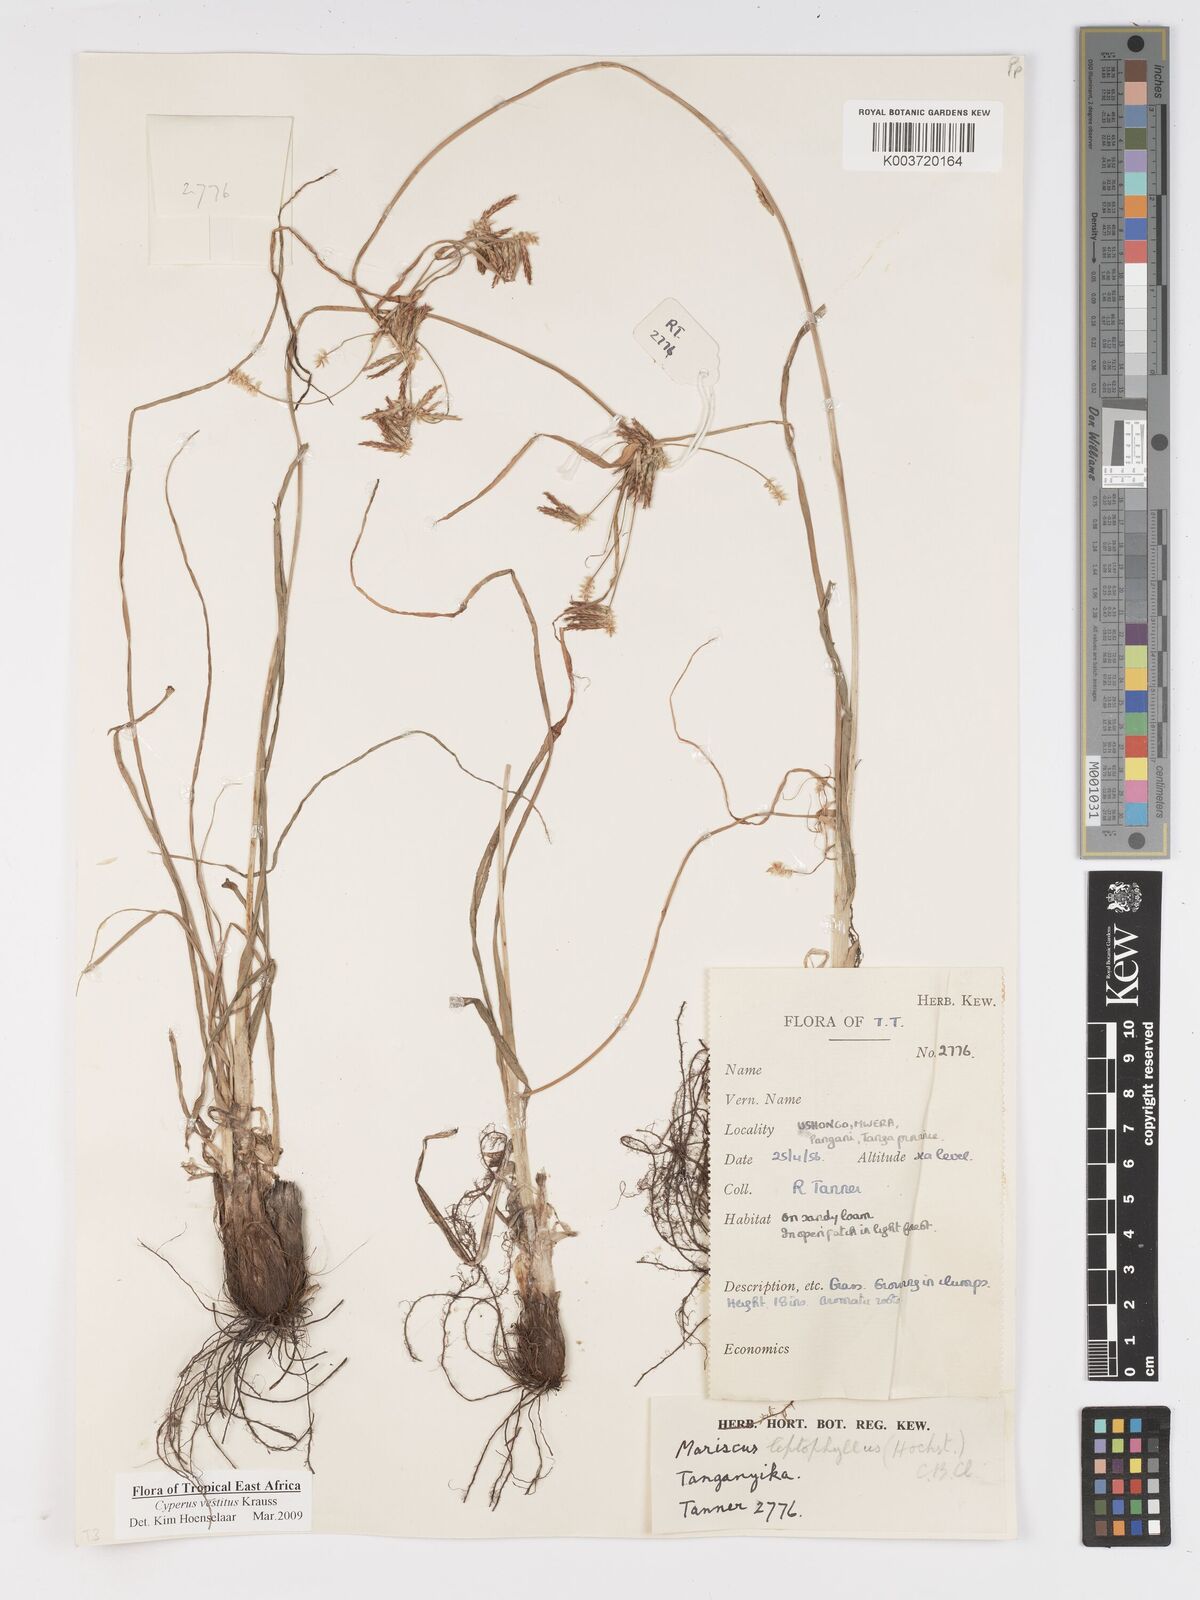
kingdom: Plantae
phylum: Tracheophyta
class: Liliopsida
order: Poales
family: Cyperaceae
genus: Cyperus
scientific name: Cyperus vestitus
